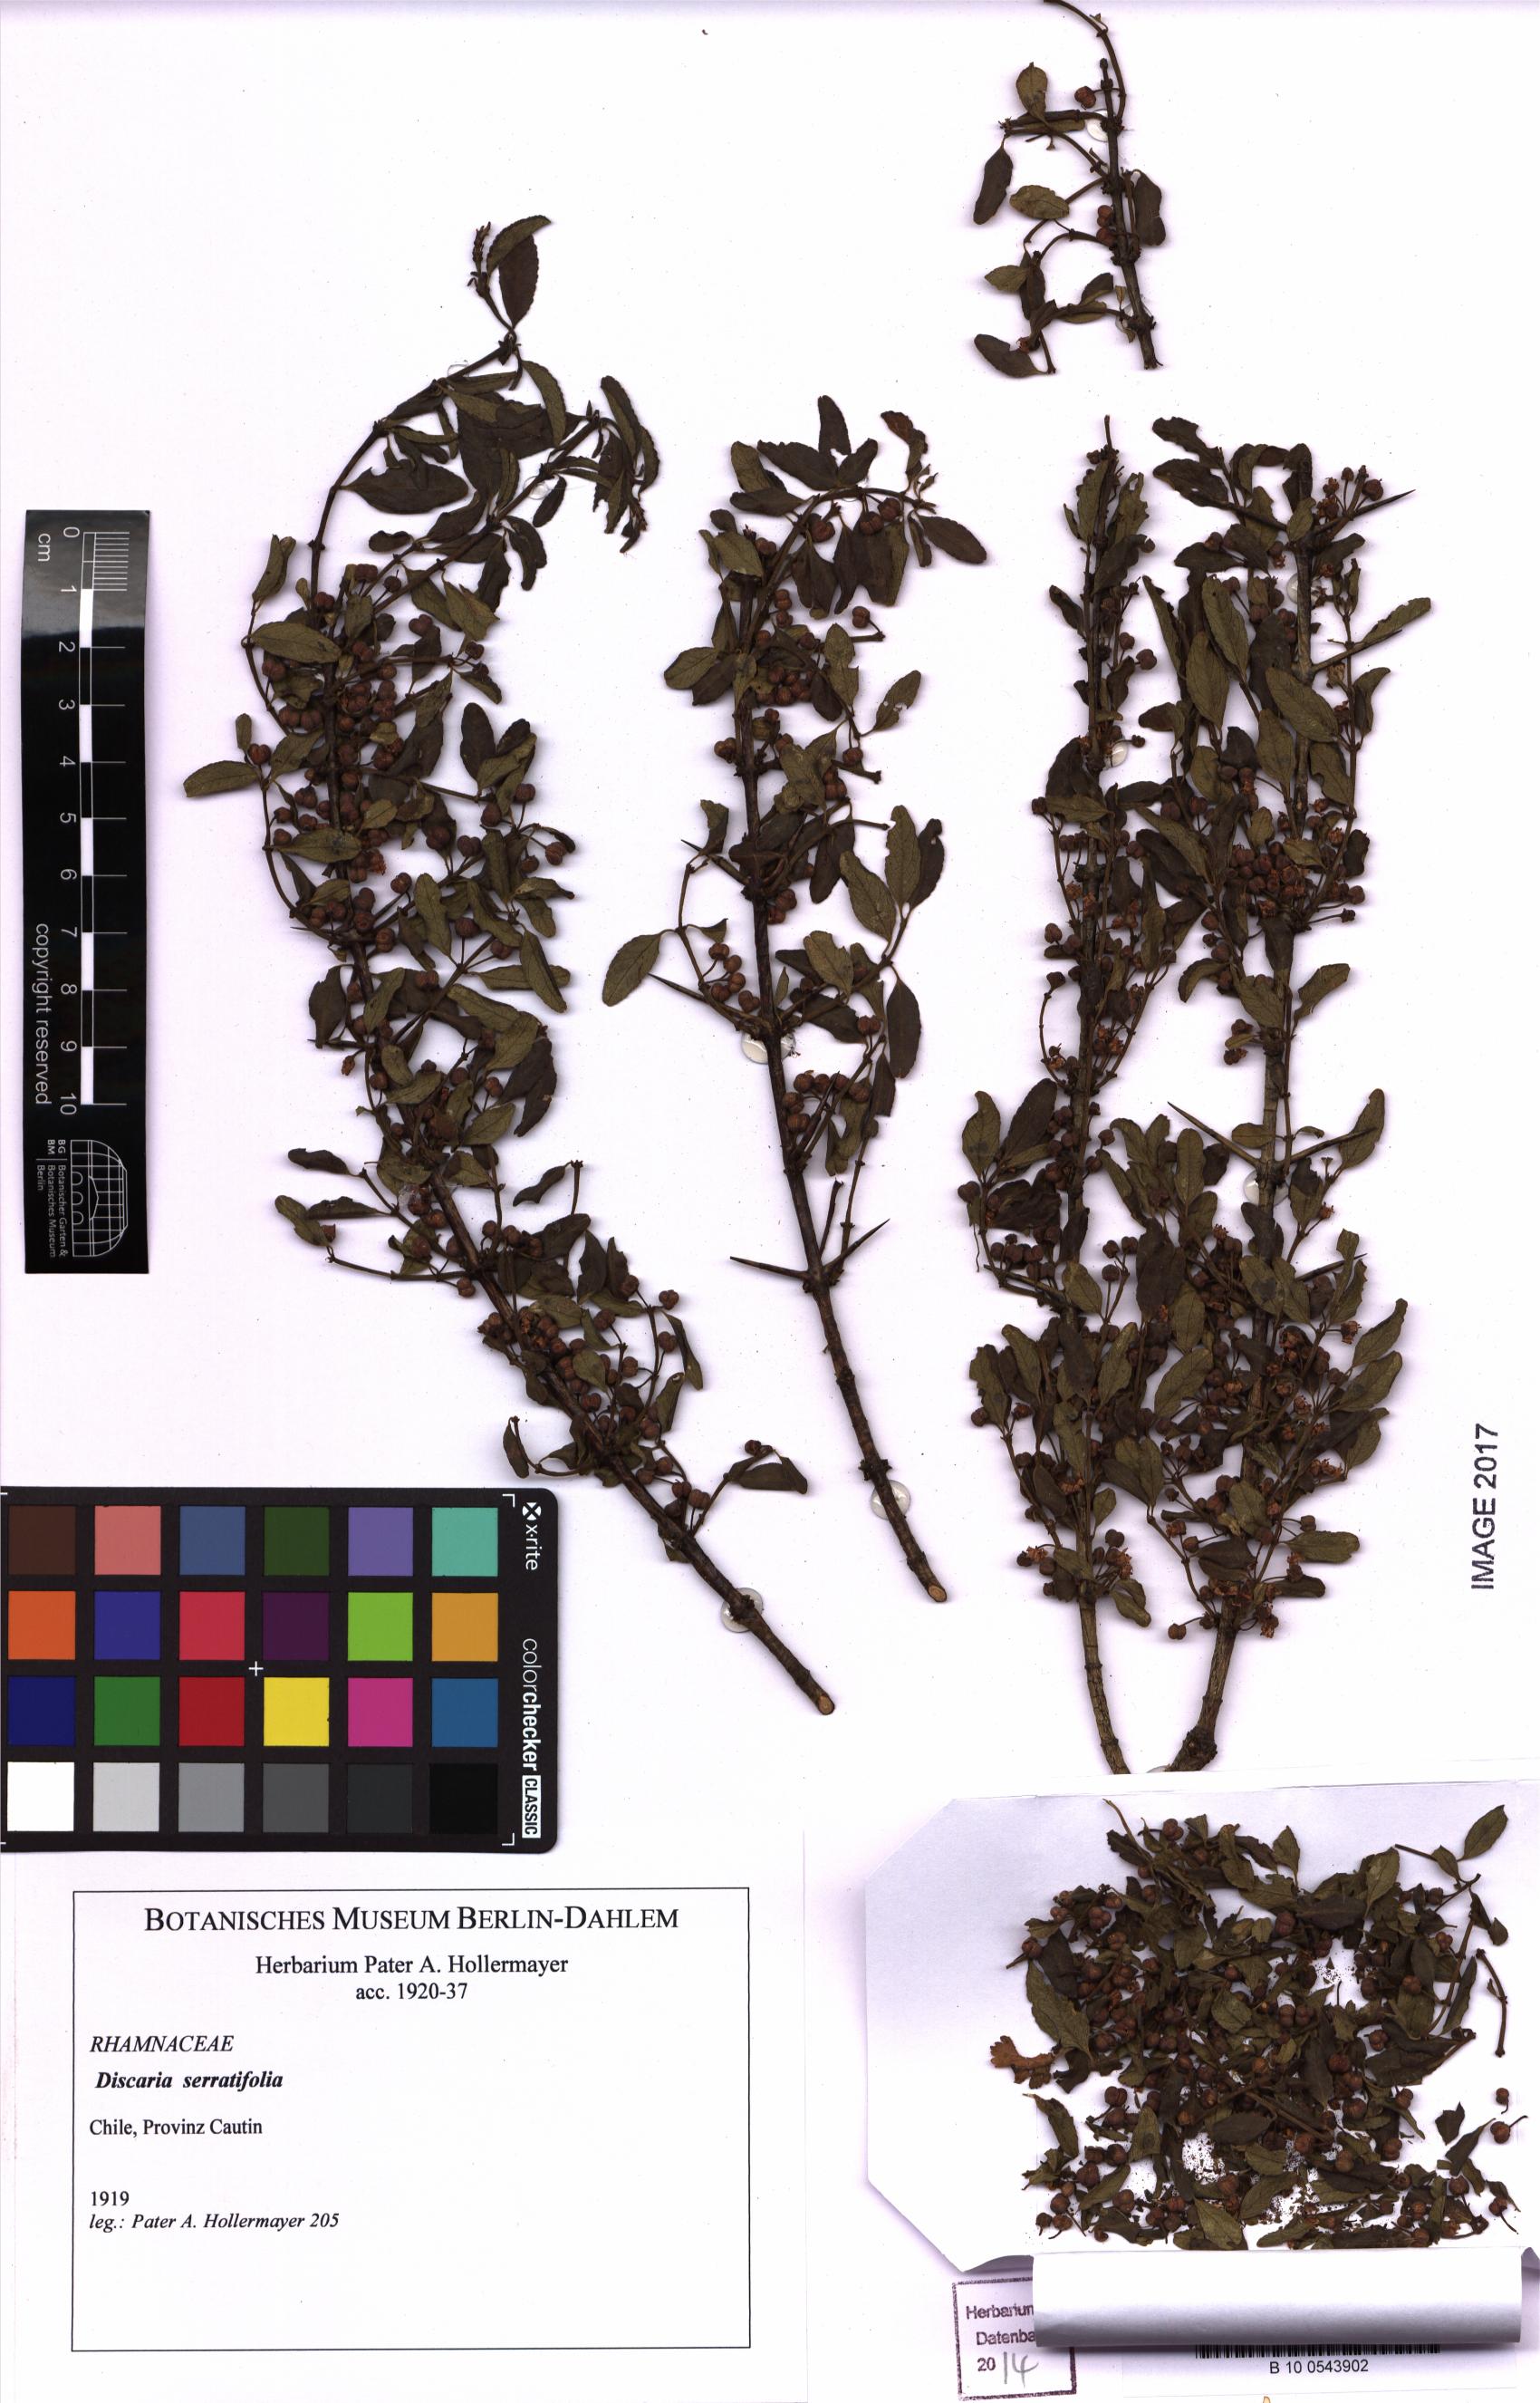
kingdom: Plantae
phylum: Tracheophyta
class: Magnoliopsida
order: Rosales
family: Rhamnaceae
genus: Discaria
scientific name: Discaria serratifolia
